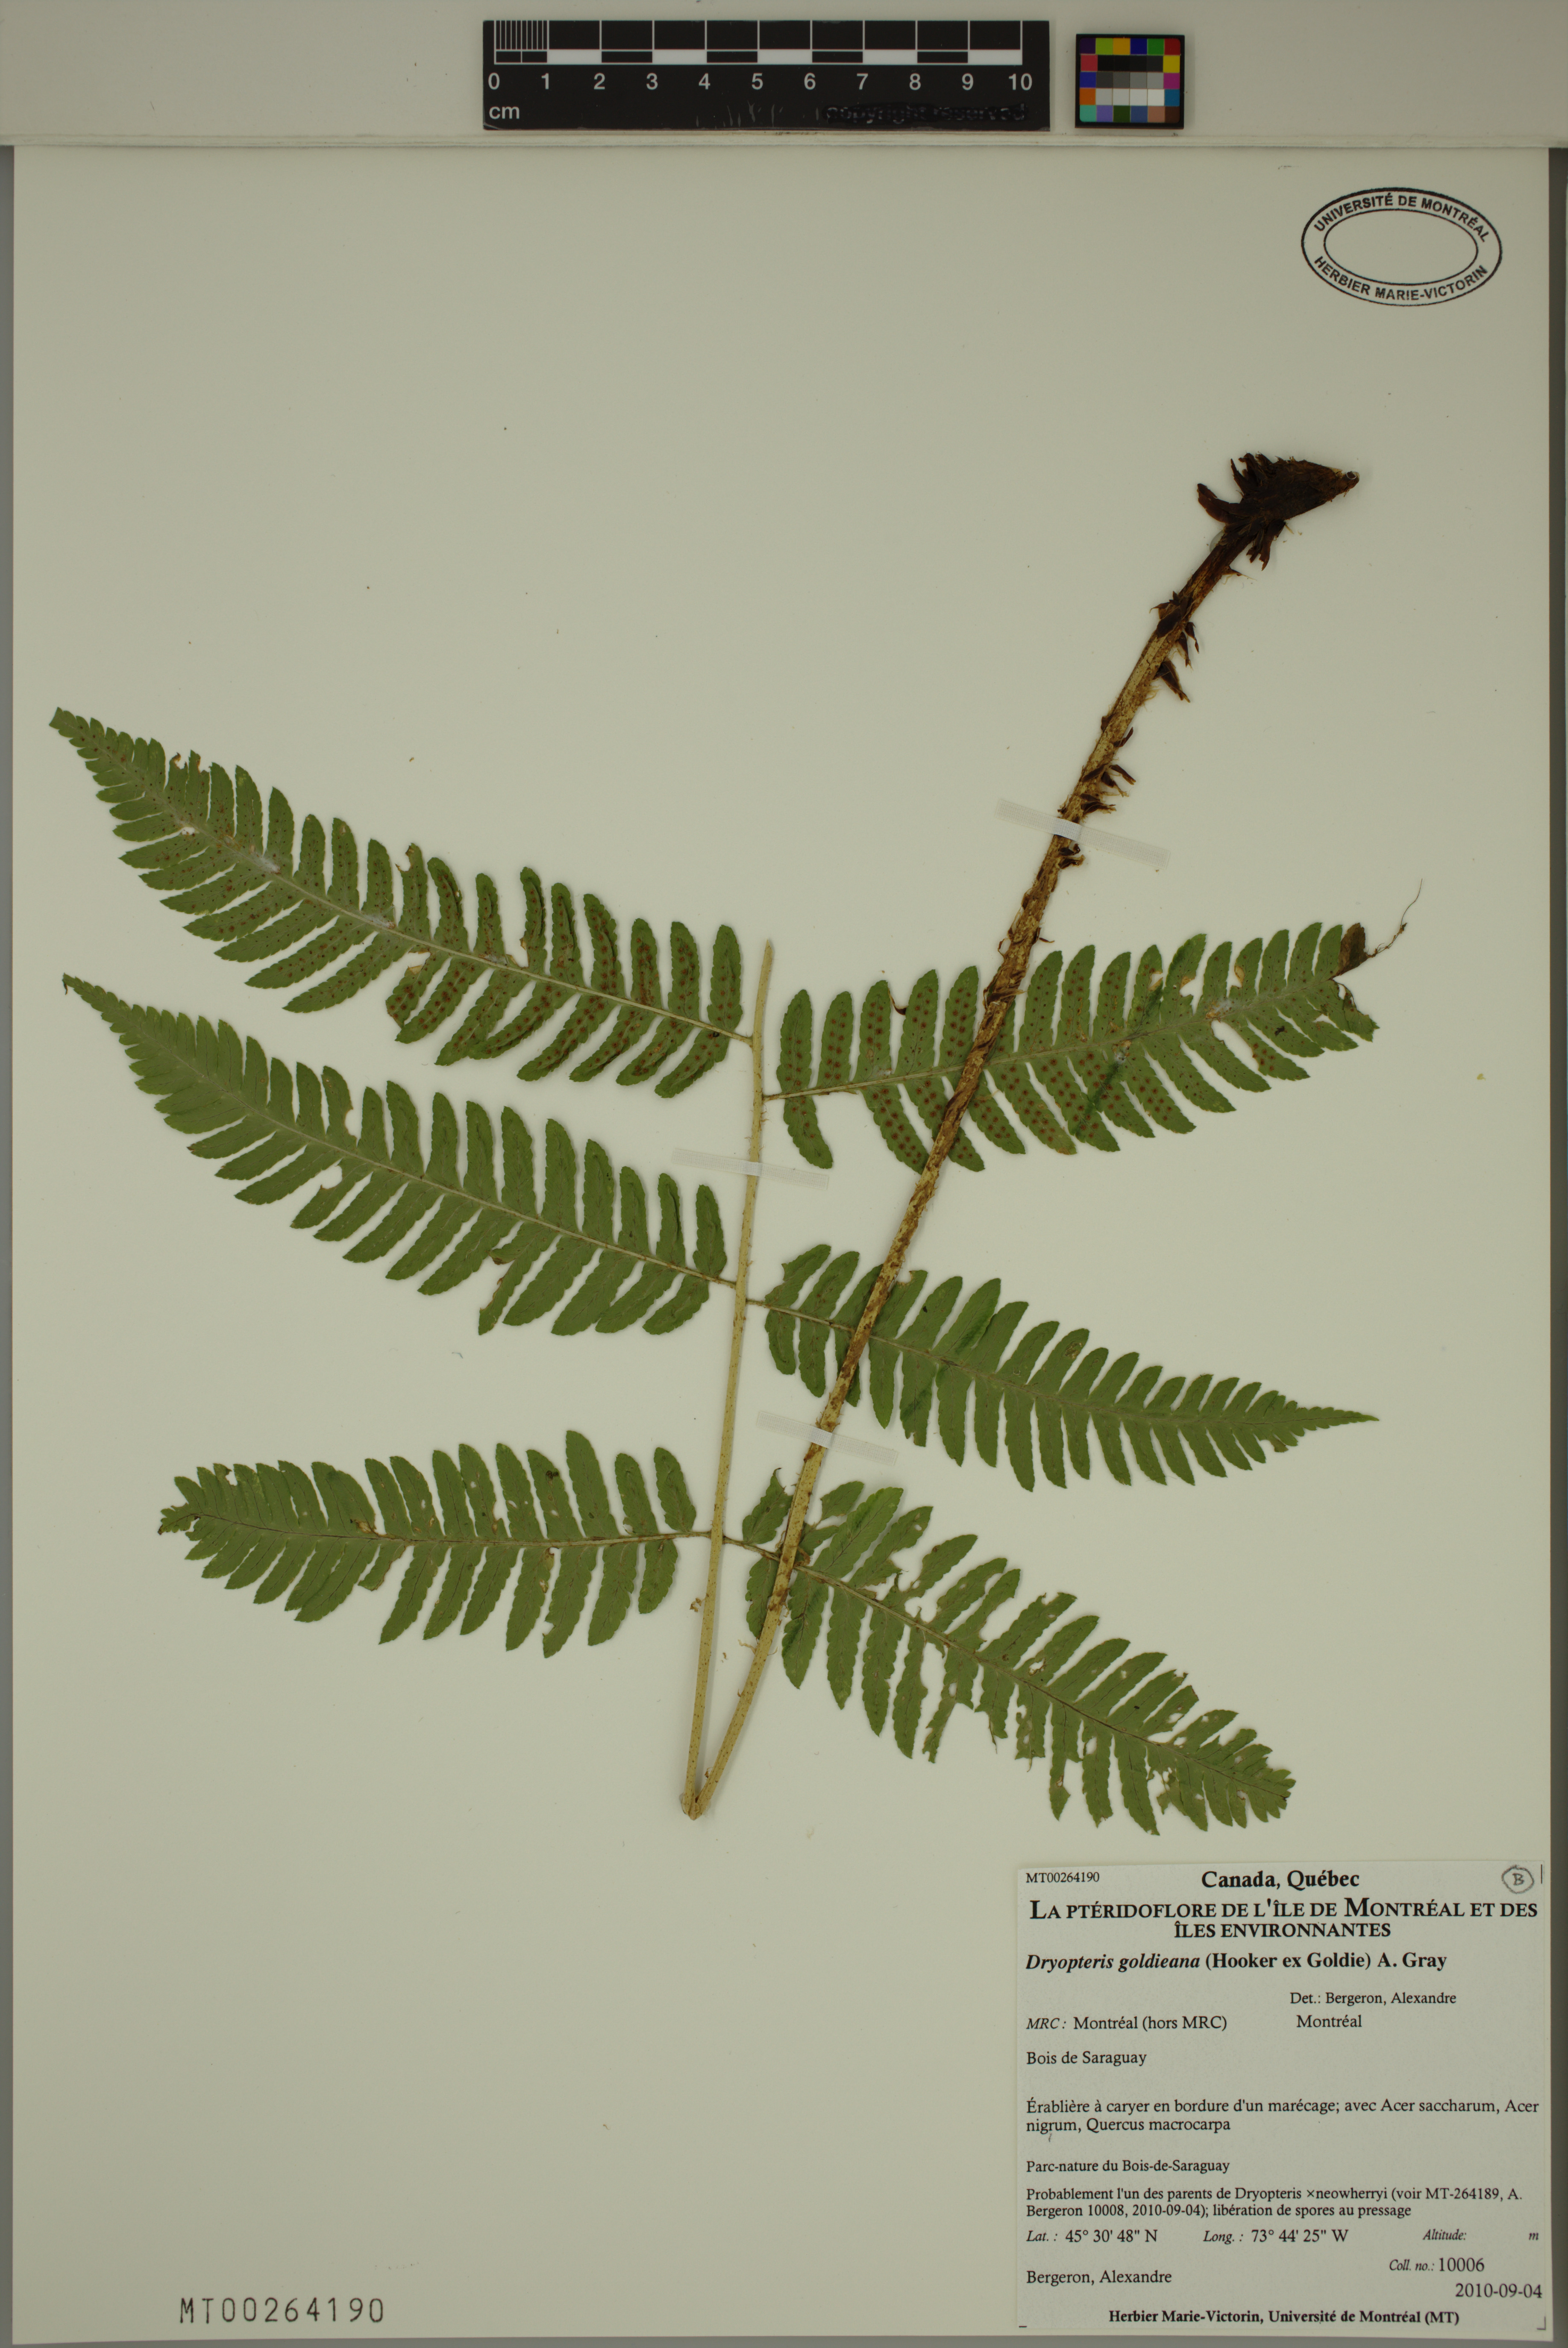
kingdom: Plantae
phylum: Tracheophyta
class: Polypodiopsida
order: Polypodiales
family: Dryopteridaceae
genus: Dryopteris
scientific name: Dryopteris goldieana
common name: Goldie's fern
